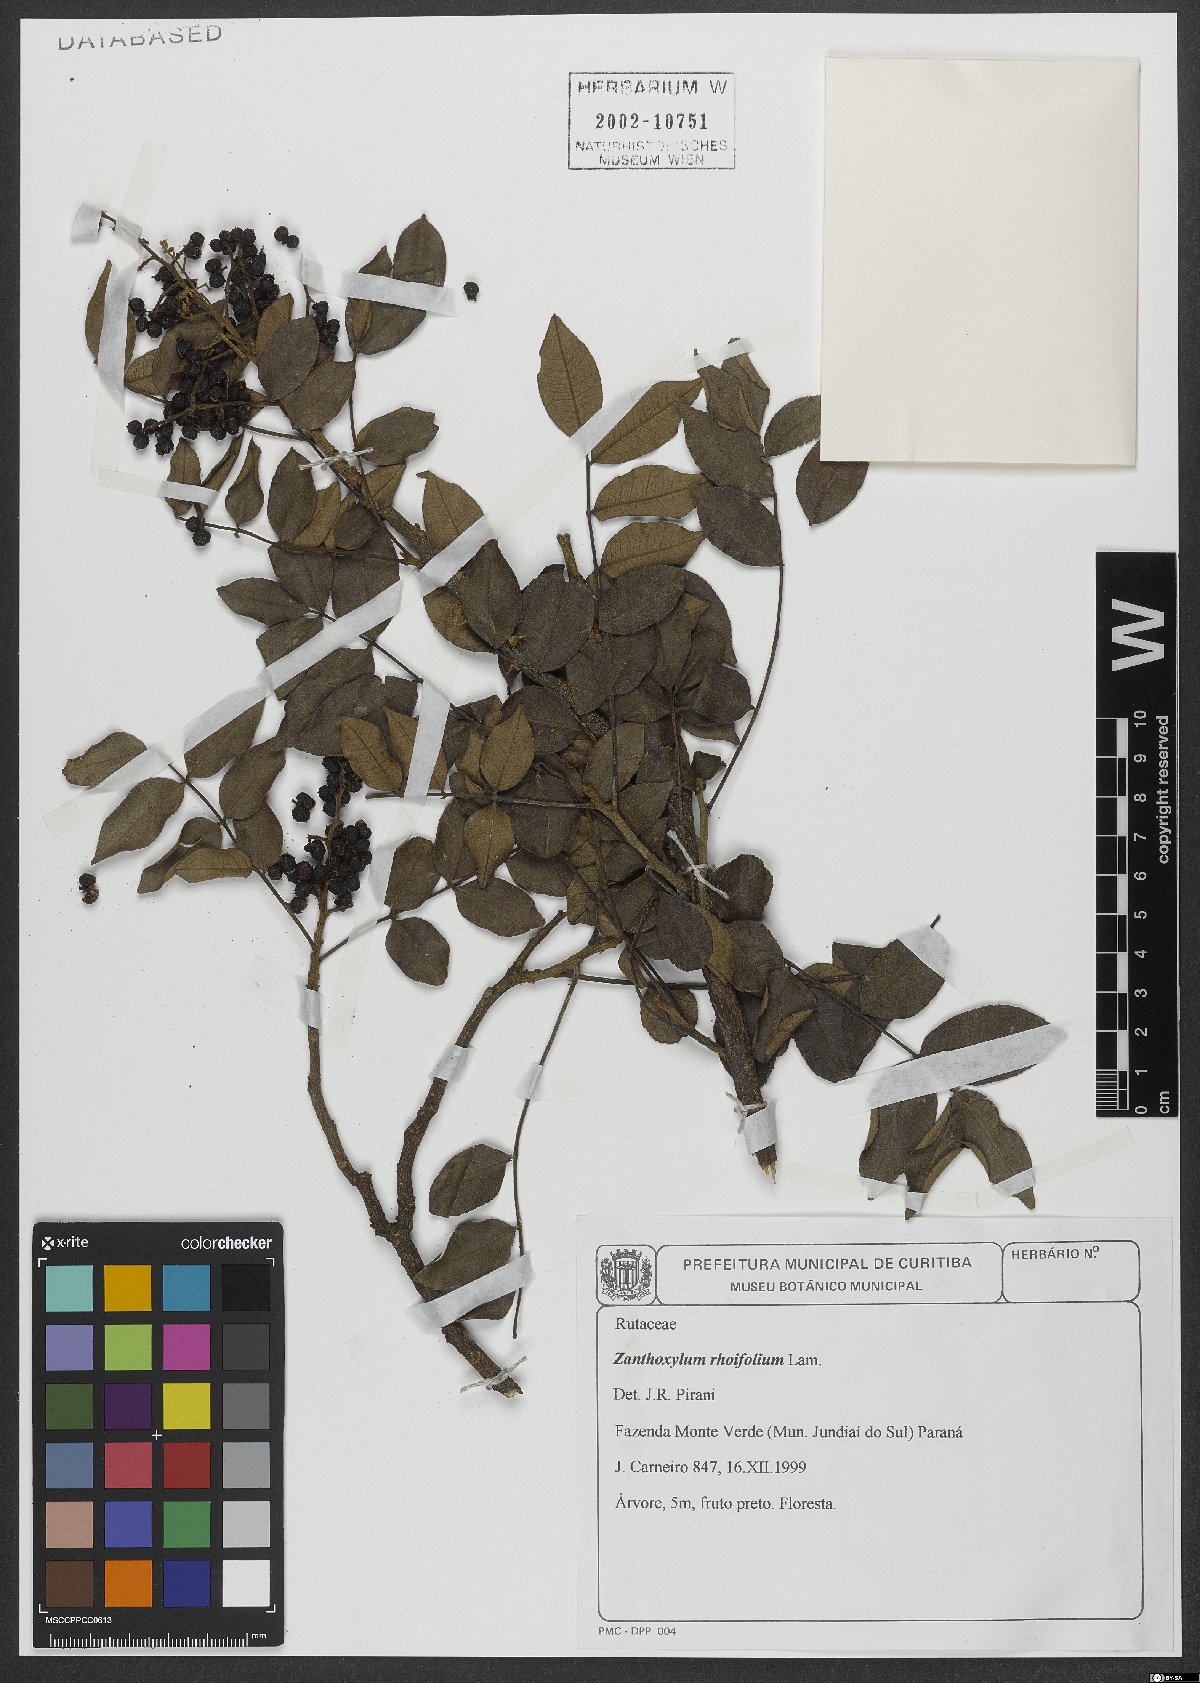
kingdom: Plantae
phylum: Tracheophyta
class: Magnoliopsida
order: Sapindales
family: Rutaceae
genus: Zanthoxylum
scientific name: Zanthoxylum rhoifolium
